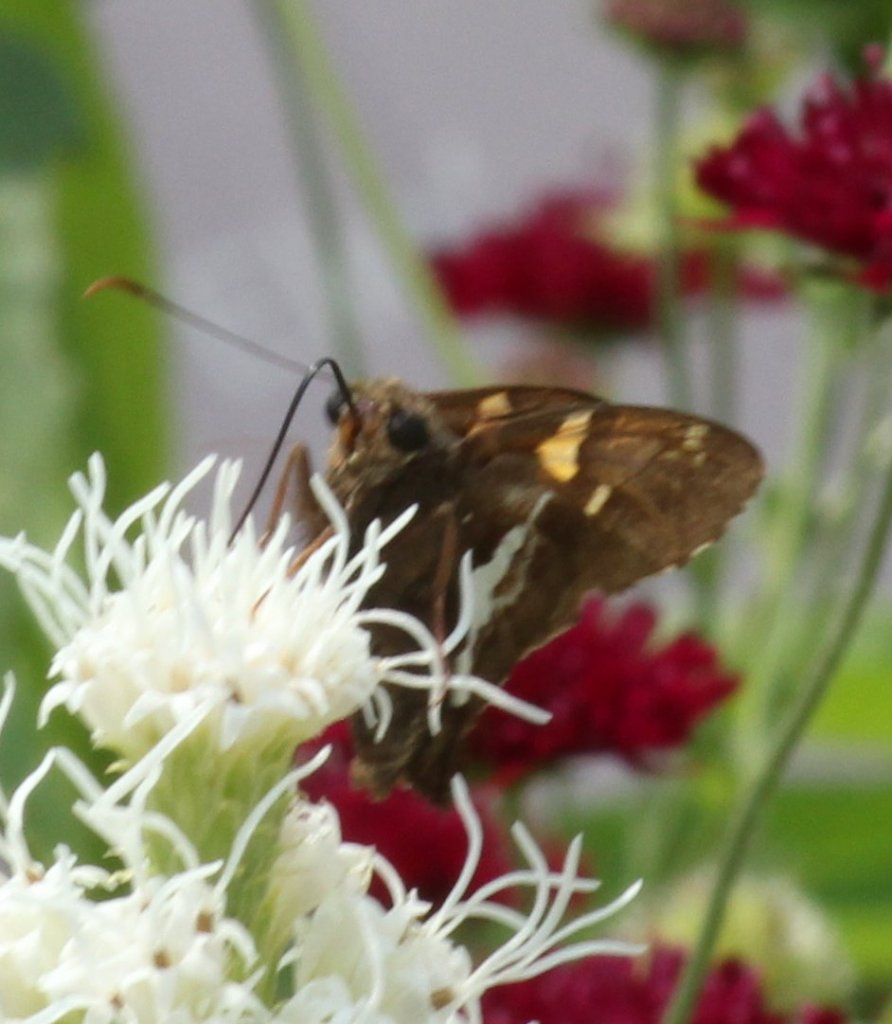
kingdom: Animalia
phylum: Arthropoda
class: Insecta
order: Lepidoptera
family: Hesperiidae
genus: Epargyreus
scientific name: Epargyreus clarus
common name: Silver-spotted Skipper
